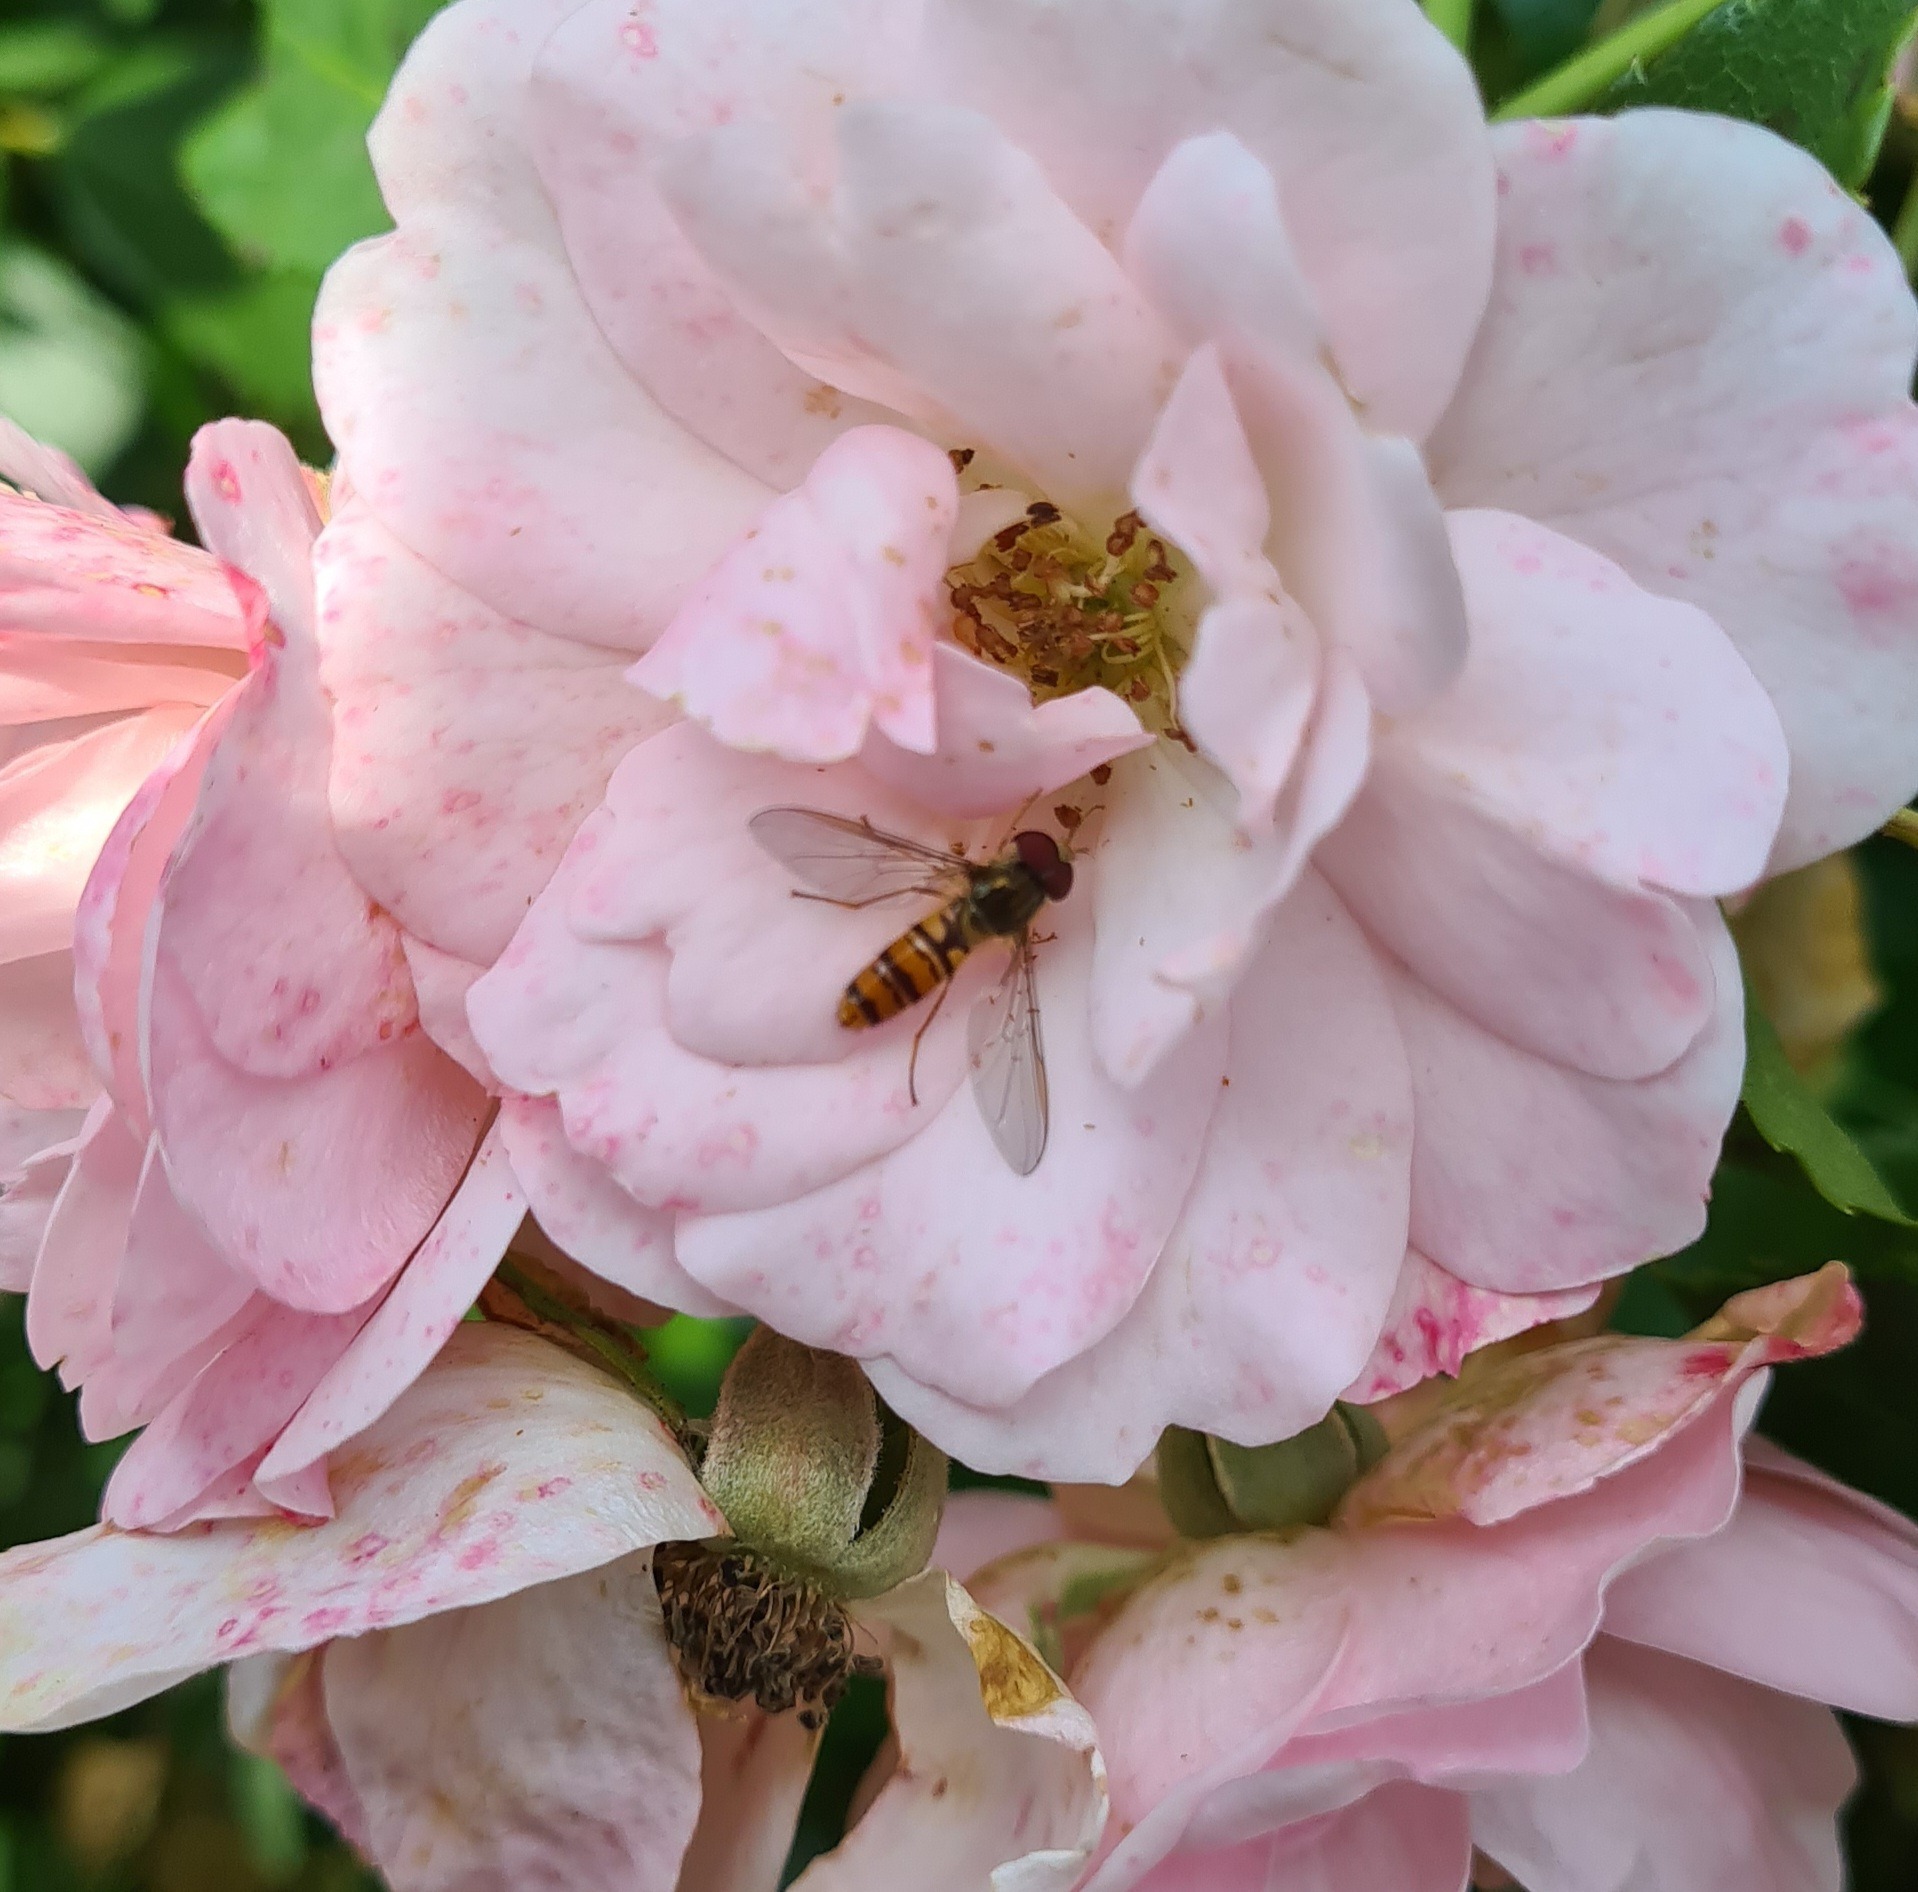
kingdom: Animalia
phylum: Arthropoda
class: Insecta
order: Diptera
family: Syrphidae
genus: Episyrphus
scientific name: Episyrphus balteatus
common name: Dobbeltbåndet svirreflue
